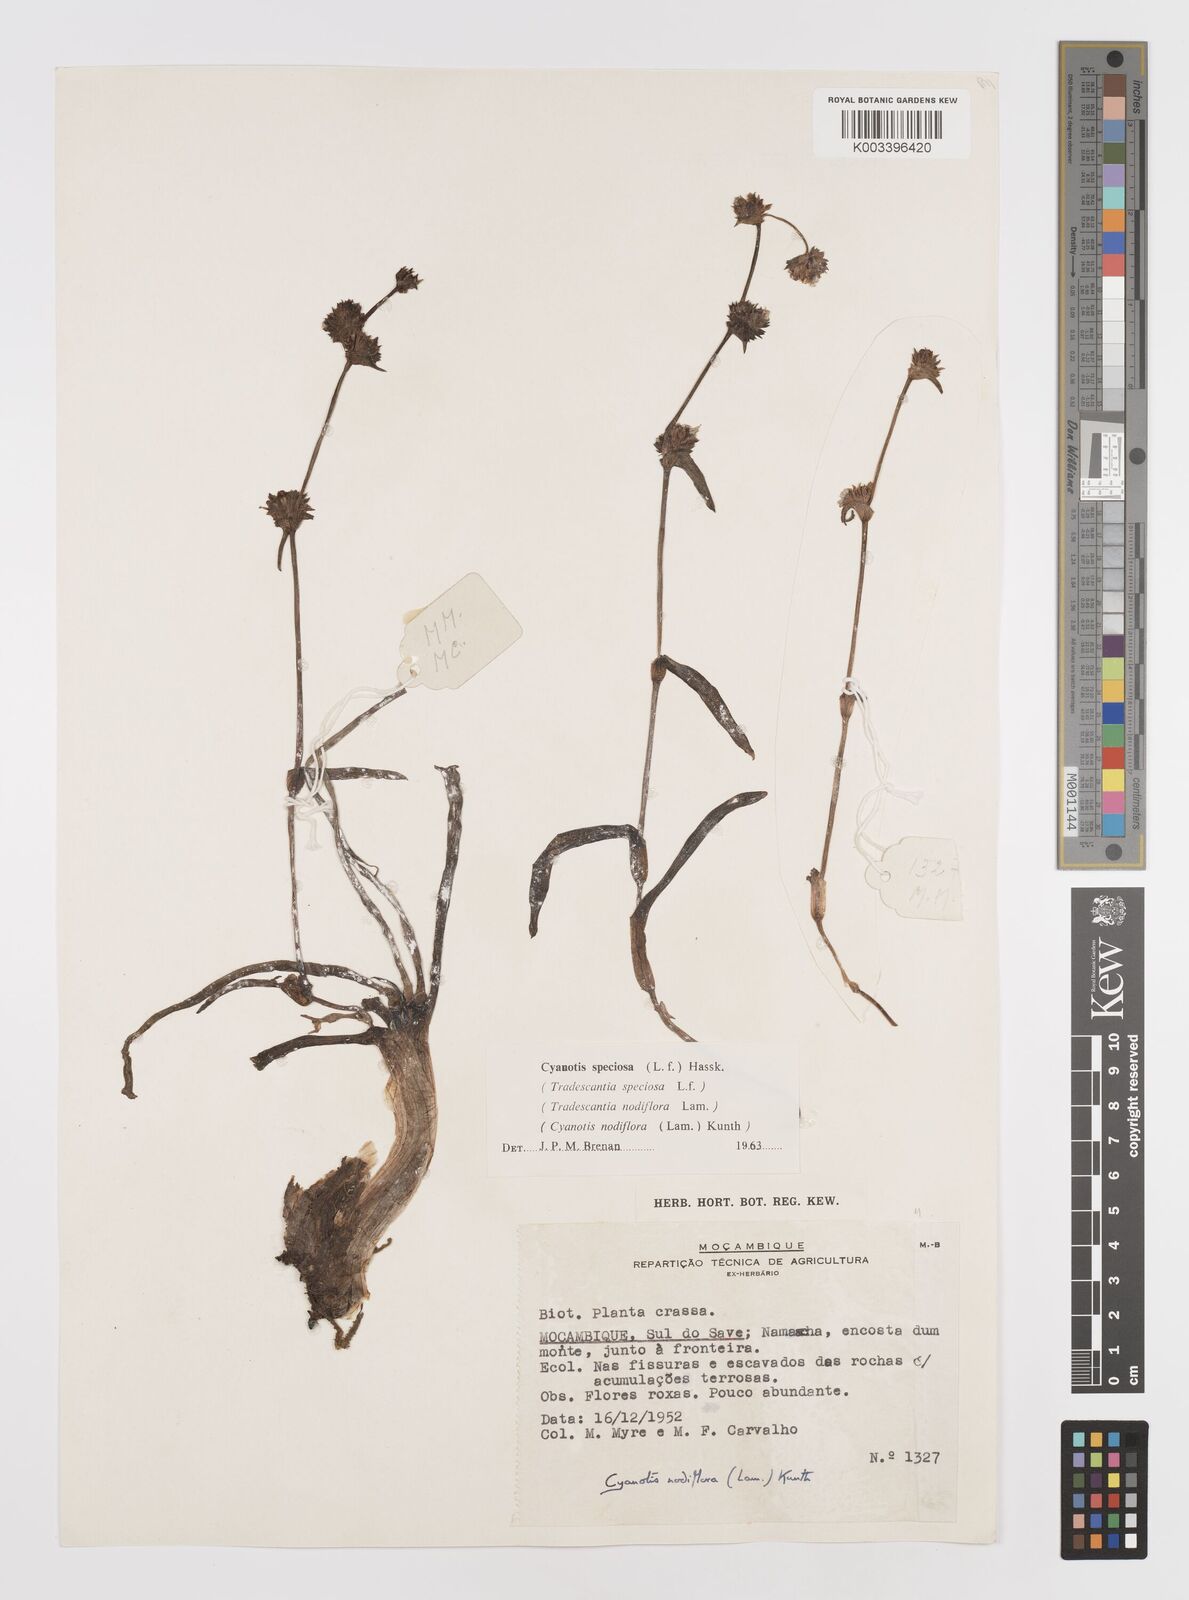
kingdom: Plantae
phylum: Tracheophyta
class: Liliopsida
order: Commelinales
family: Commelinaceae
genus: Cyanotis
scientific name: Cyanotis speciosa
